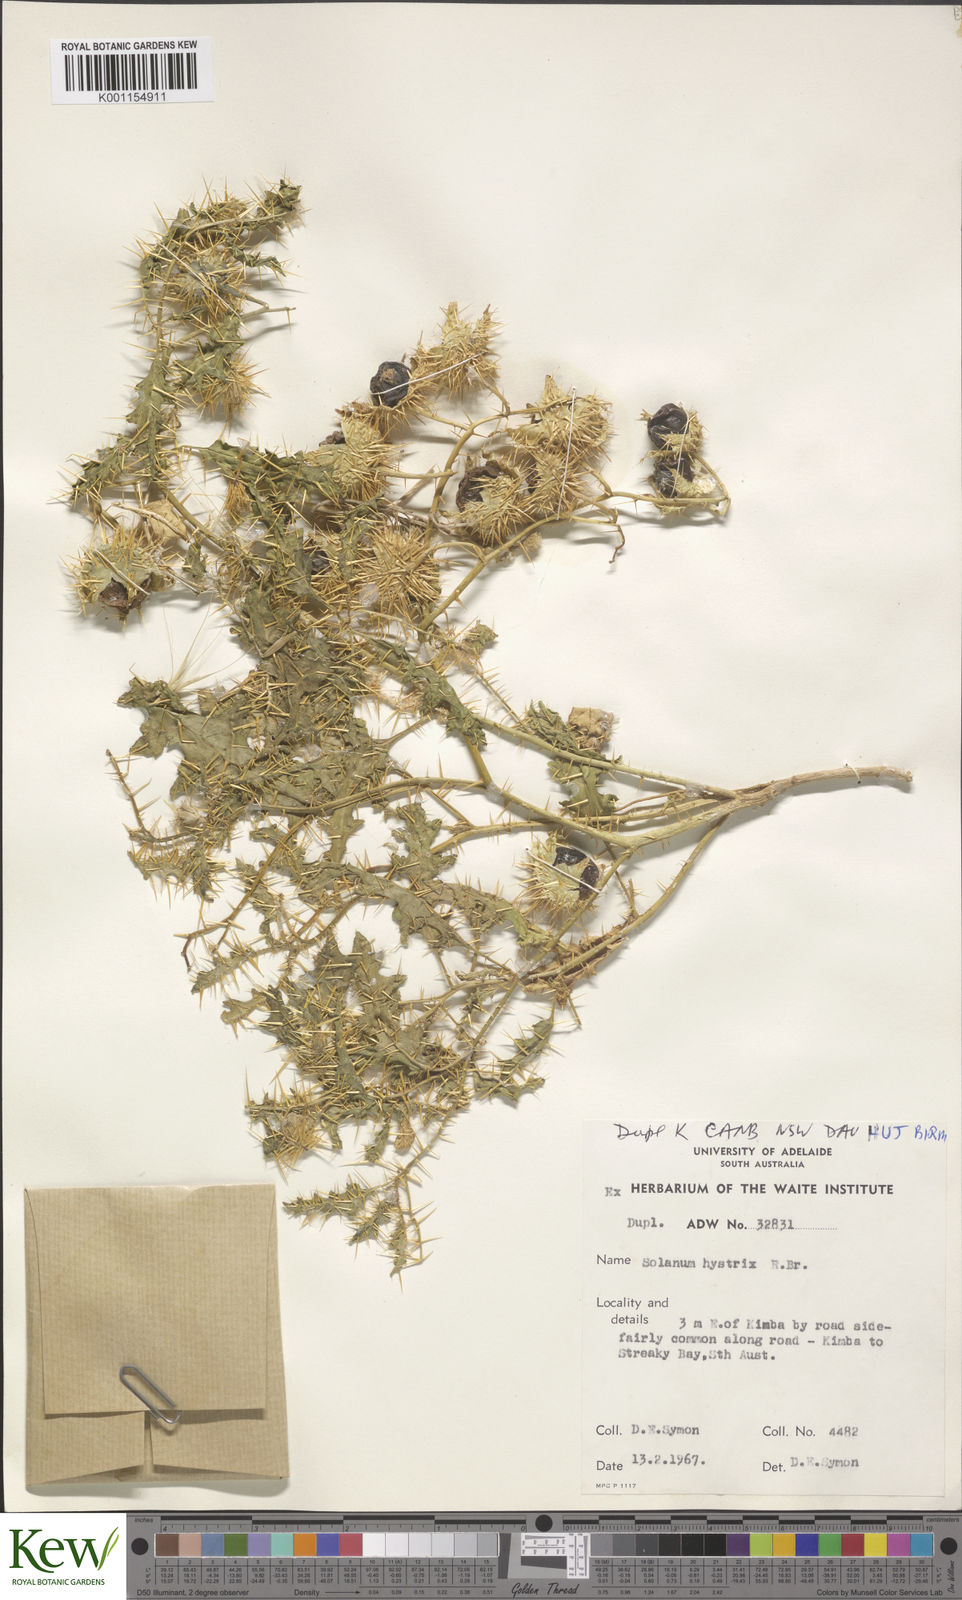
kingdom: Plantae
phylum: Tracheophyta
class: Magnoliopsida
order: Solanales
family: Solanaceae
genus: Solanum
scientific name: Solanum hystrix
